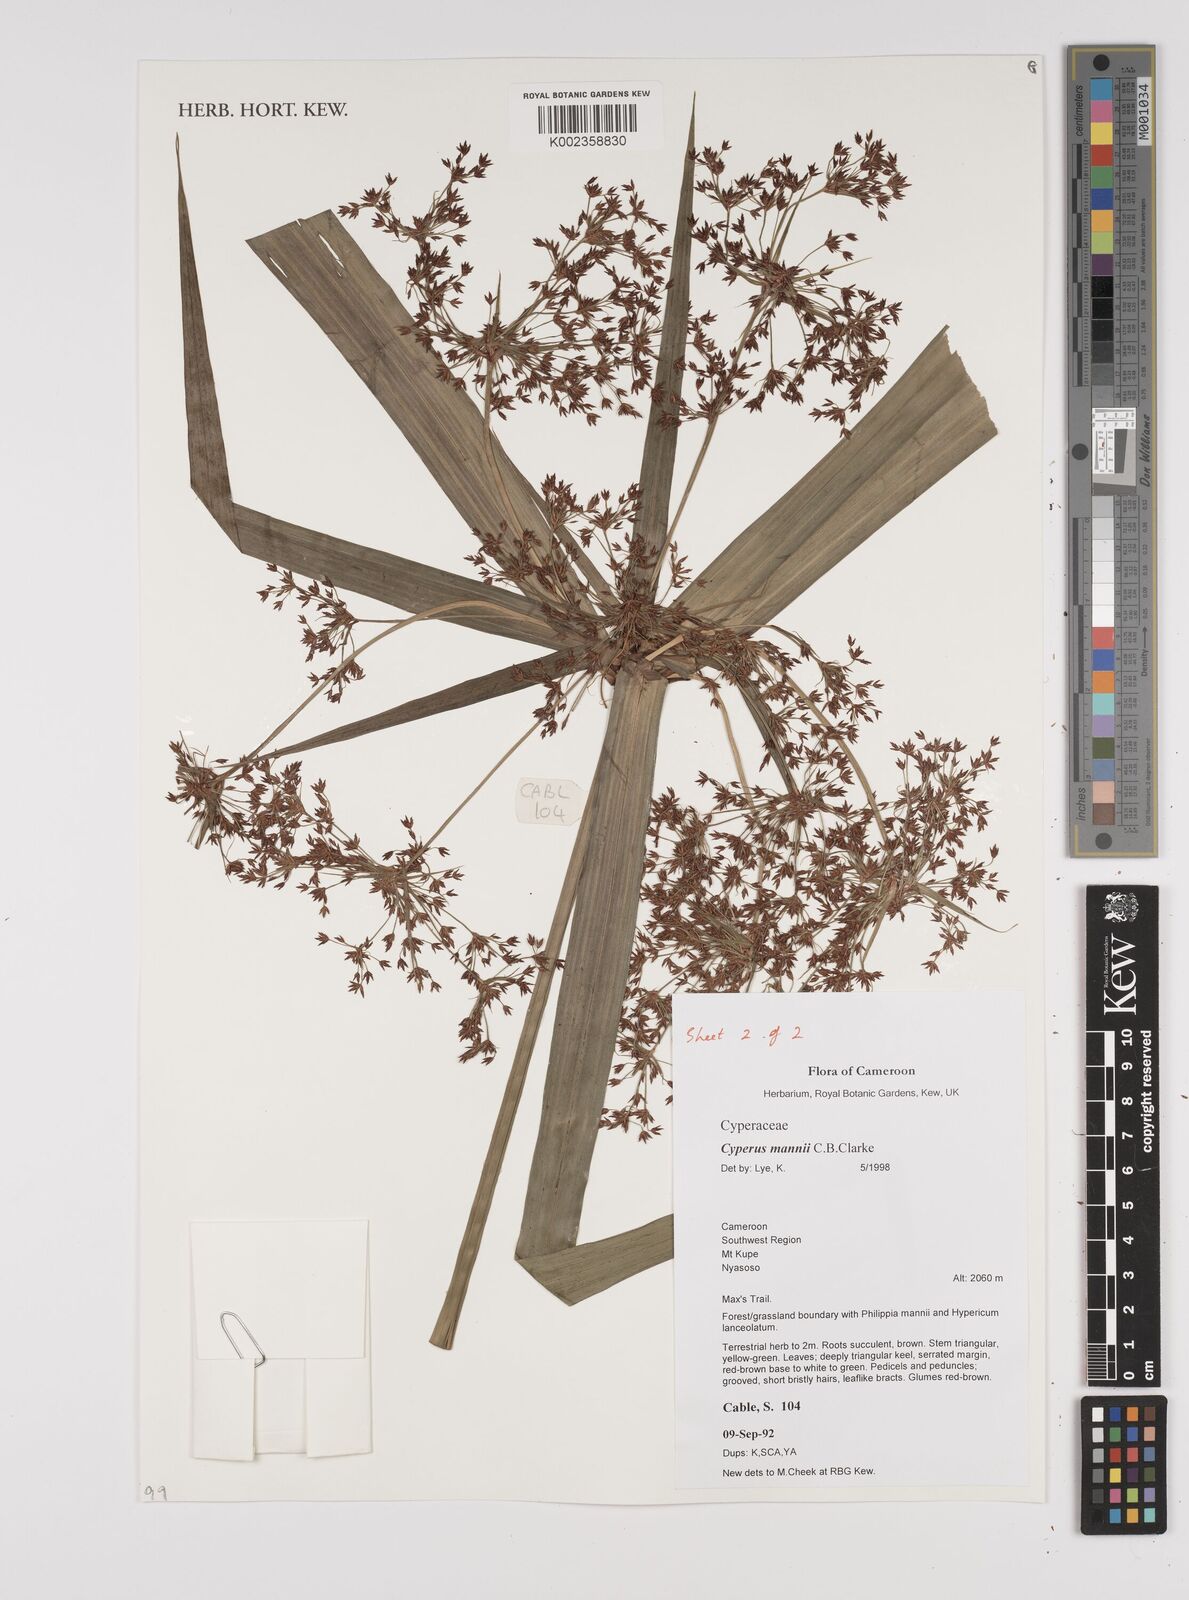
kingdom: Plantae
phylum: Tracheophyta
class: Liliopsida
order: Poales
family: Cyperaceae
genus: Cyperus
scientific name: Cyperus baronii
